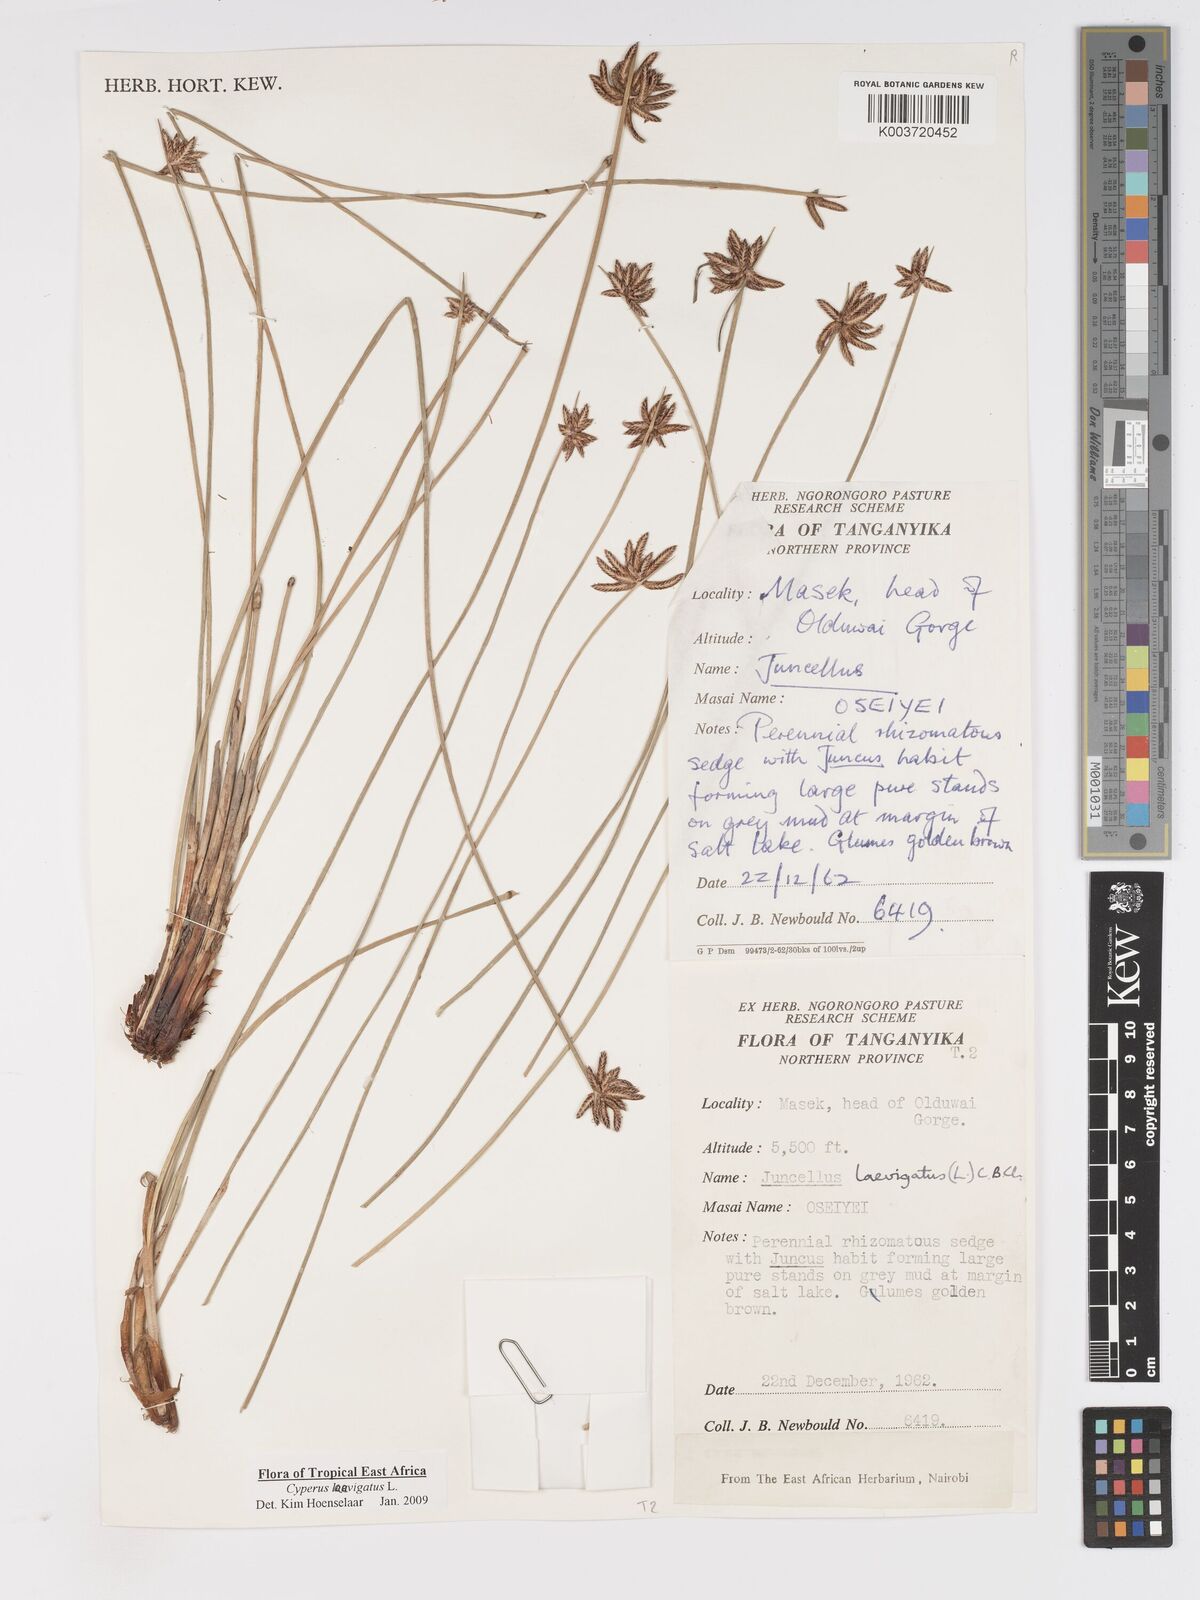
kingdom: Plantae
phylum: Tracheophyta
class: Liliopsida
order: Poales
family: Cyperaceae
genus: Cyperus
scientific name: Cyperus laevigatus
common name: Smooth flat sedge
